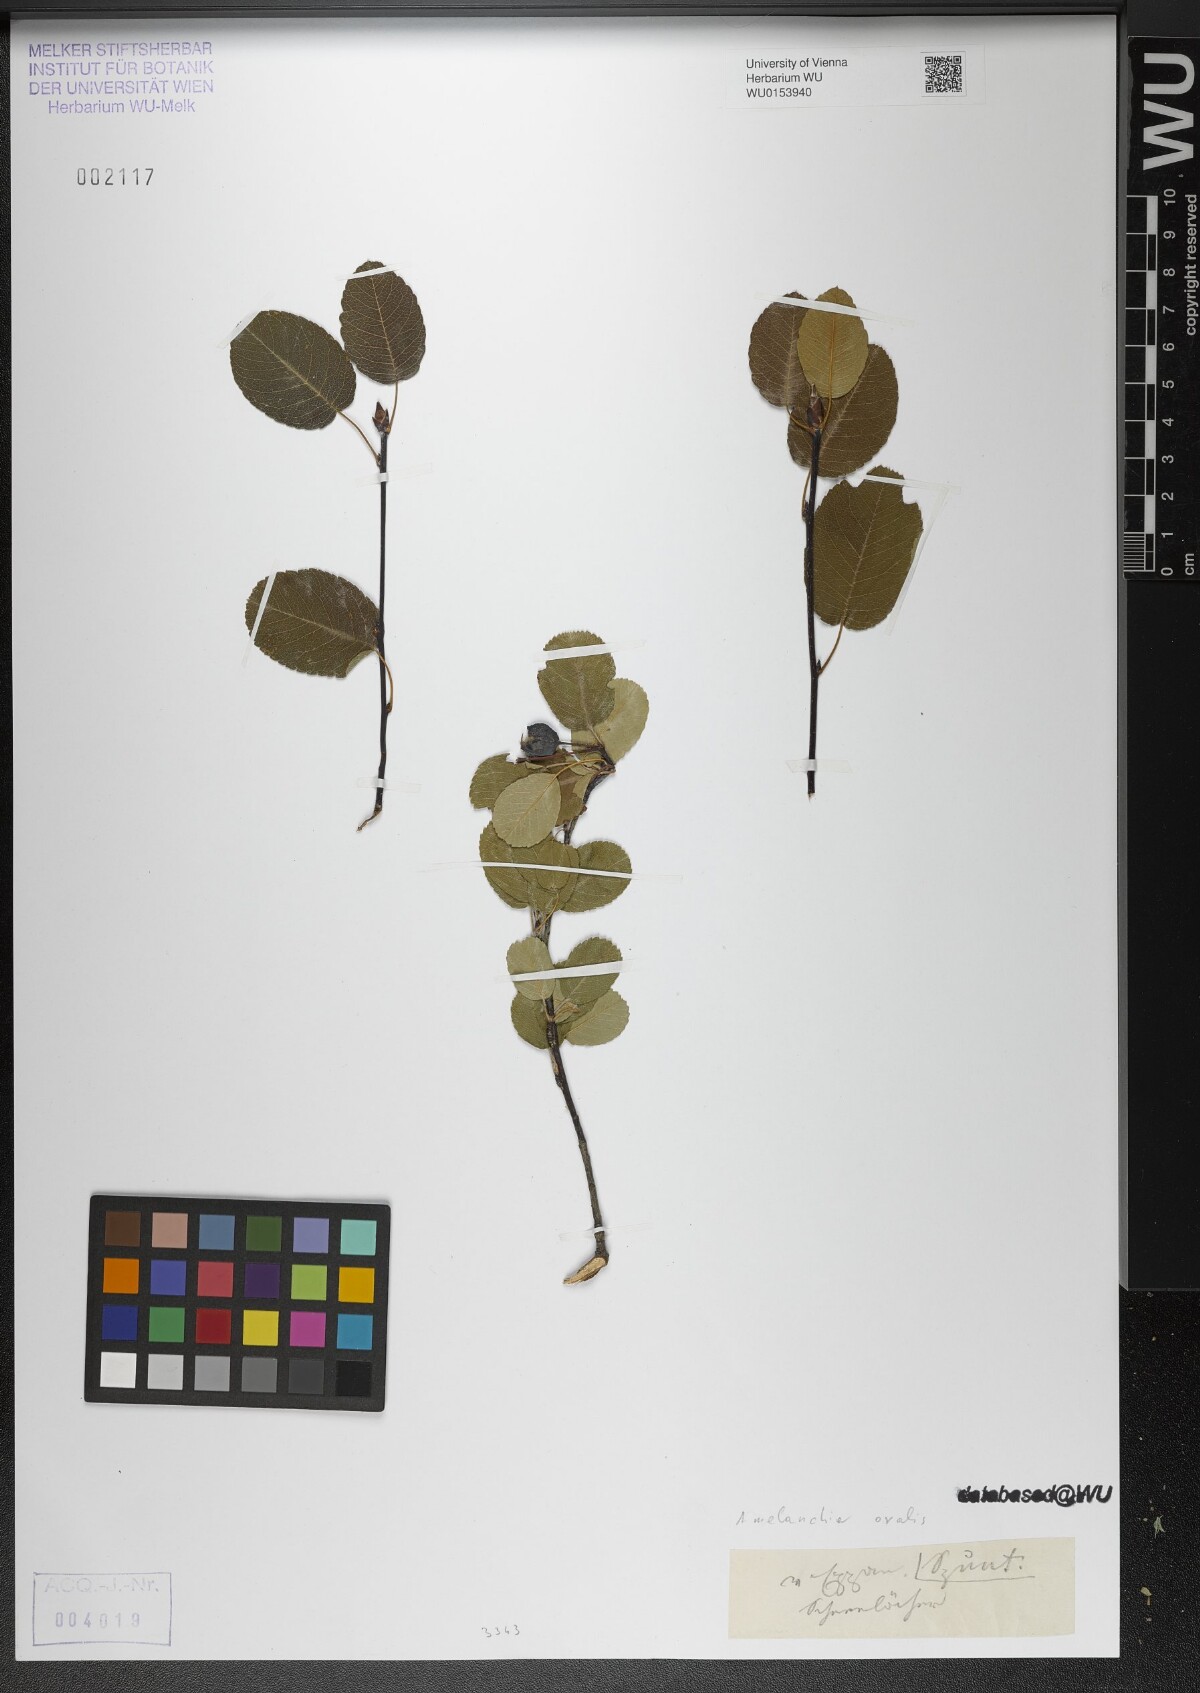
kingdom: Plantae
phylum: Tracheophyta
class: Magnoliopsida
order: Rosales
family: Rosaceae
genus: Amelanchier
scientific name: Amelanchier ovalis
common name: Serviceberry
